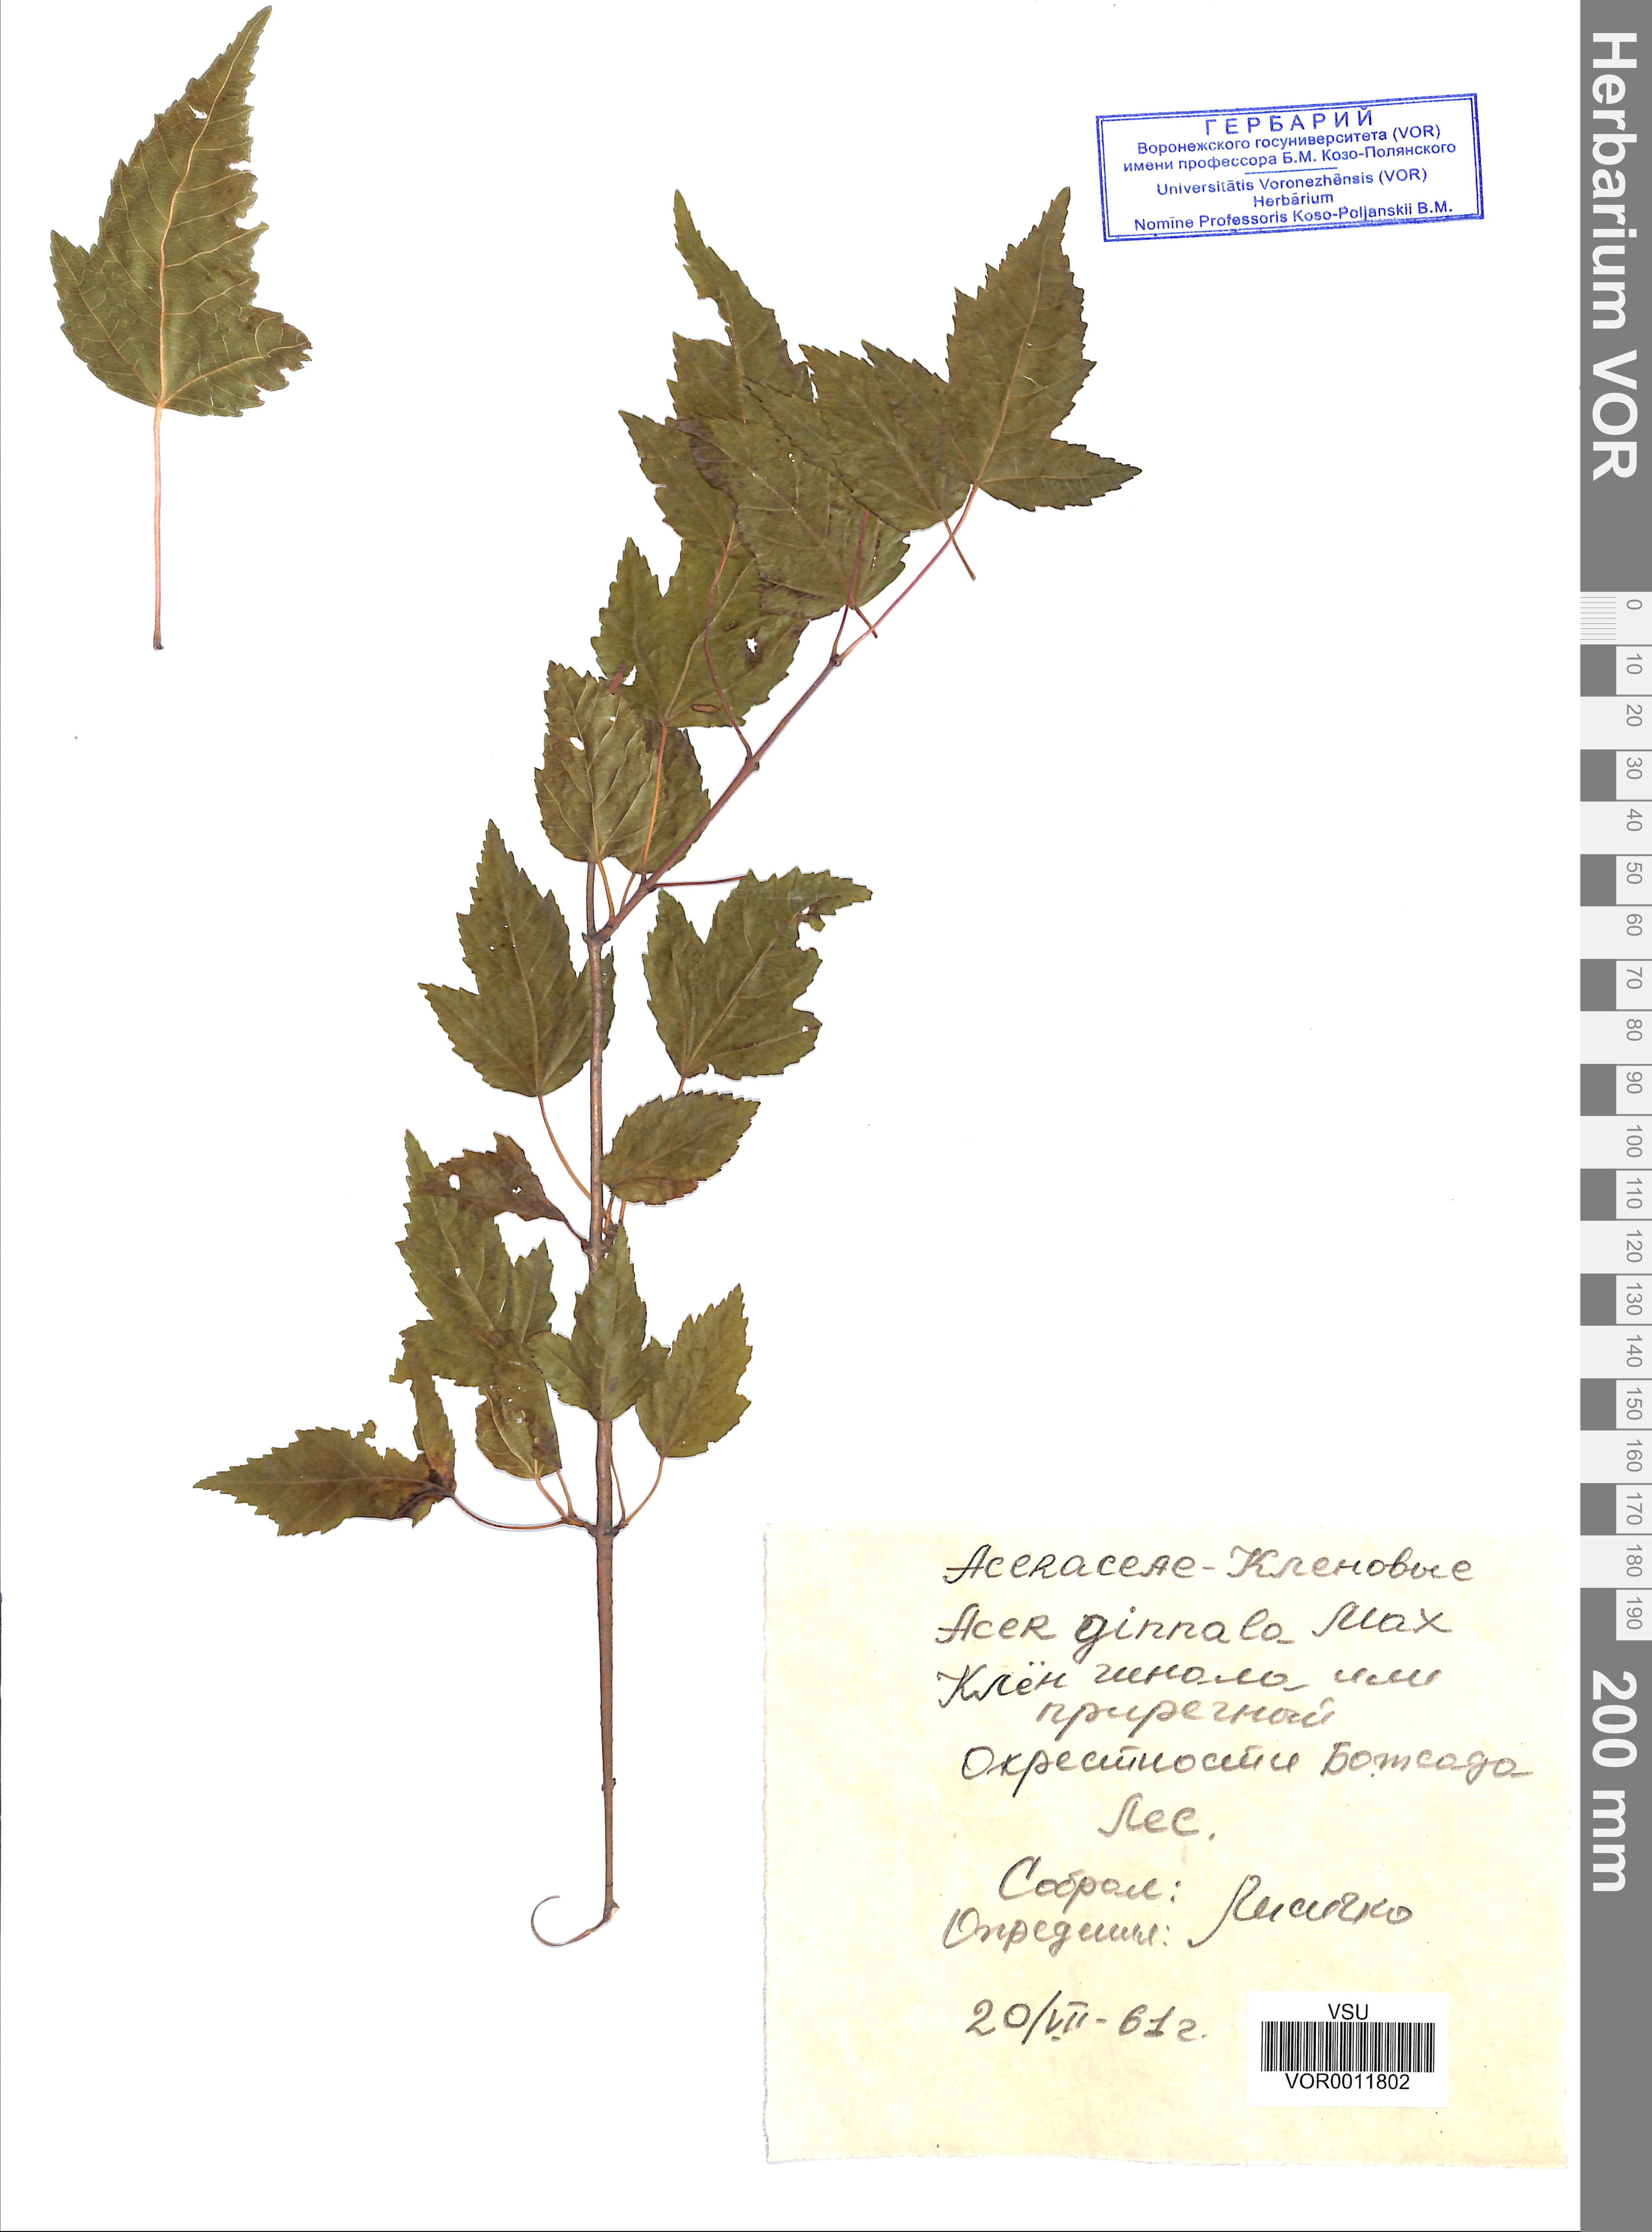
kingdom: Plantae
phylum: Tracheophyta
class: Magnoliopsida
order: Sapindales
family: Sapindaceae
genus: Acer
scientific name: Acer tataricum
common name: Tartar maple
